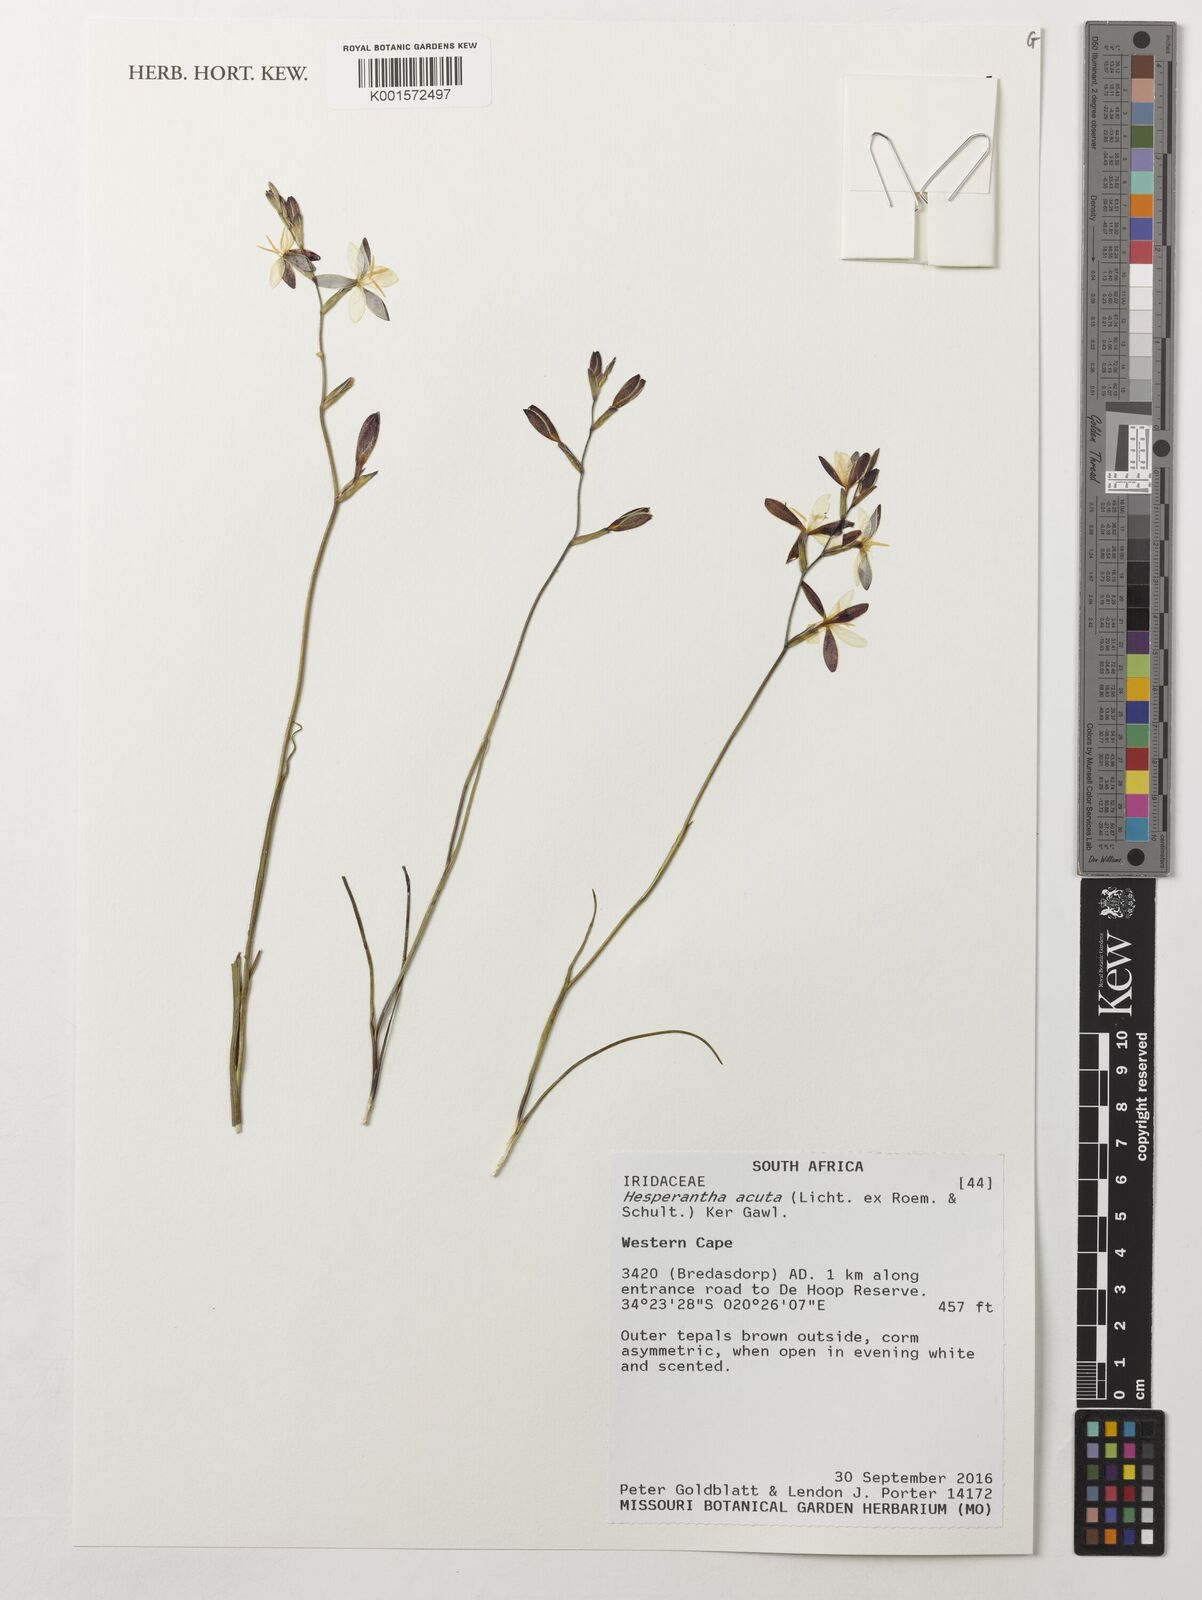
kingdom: Plantae
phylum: Tracheophyta
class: Liliopsida
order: Asparagales
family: Iridaceae
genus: Hesperantha
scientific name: Hesperantha acuta
